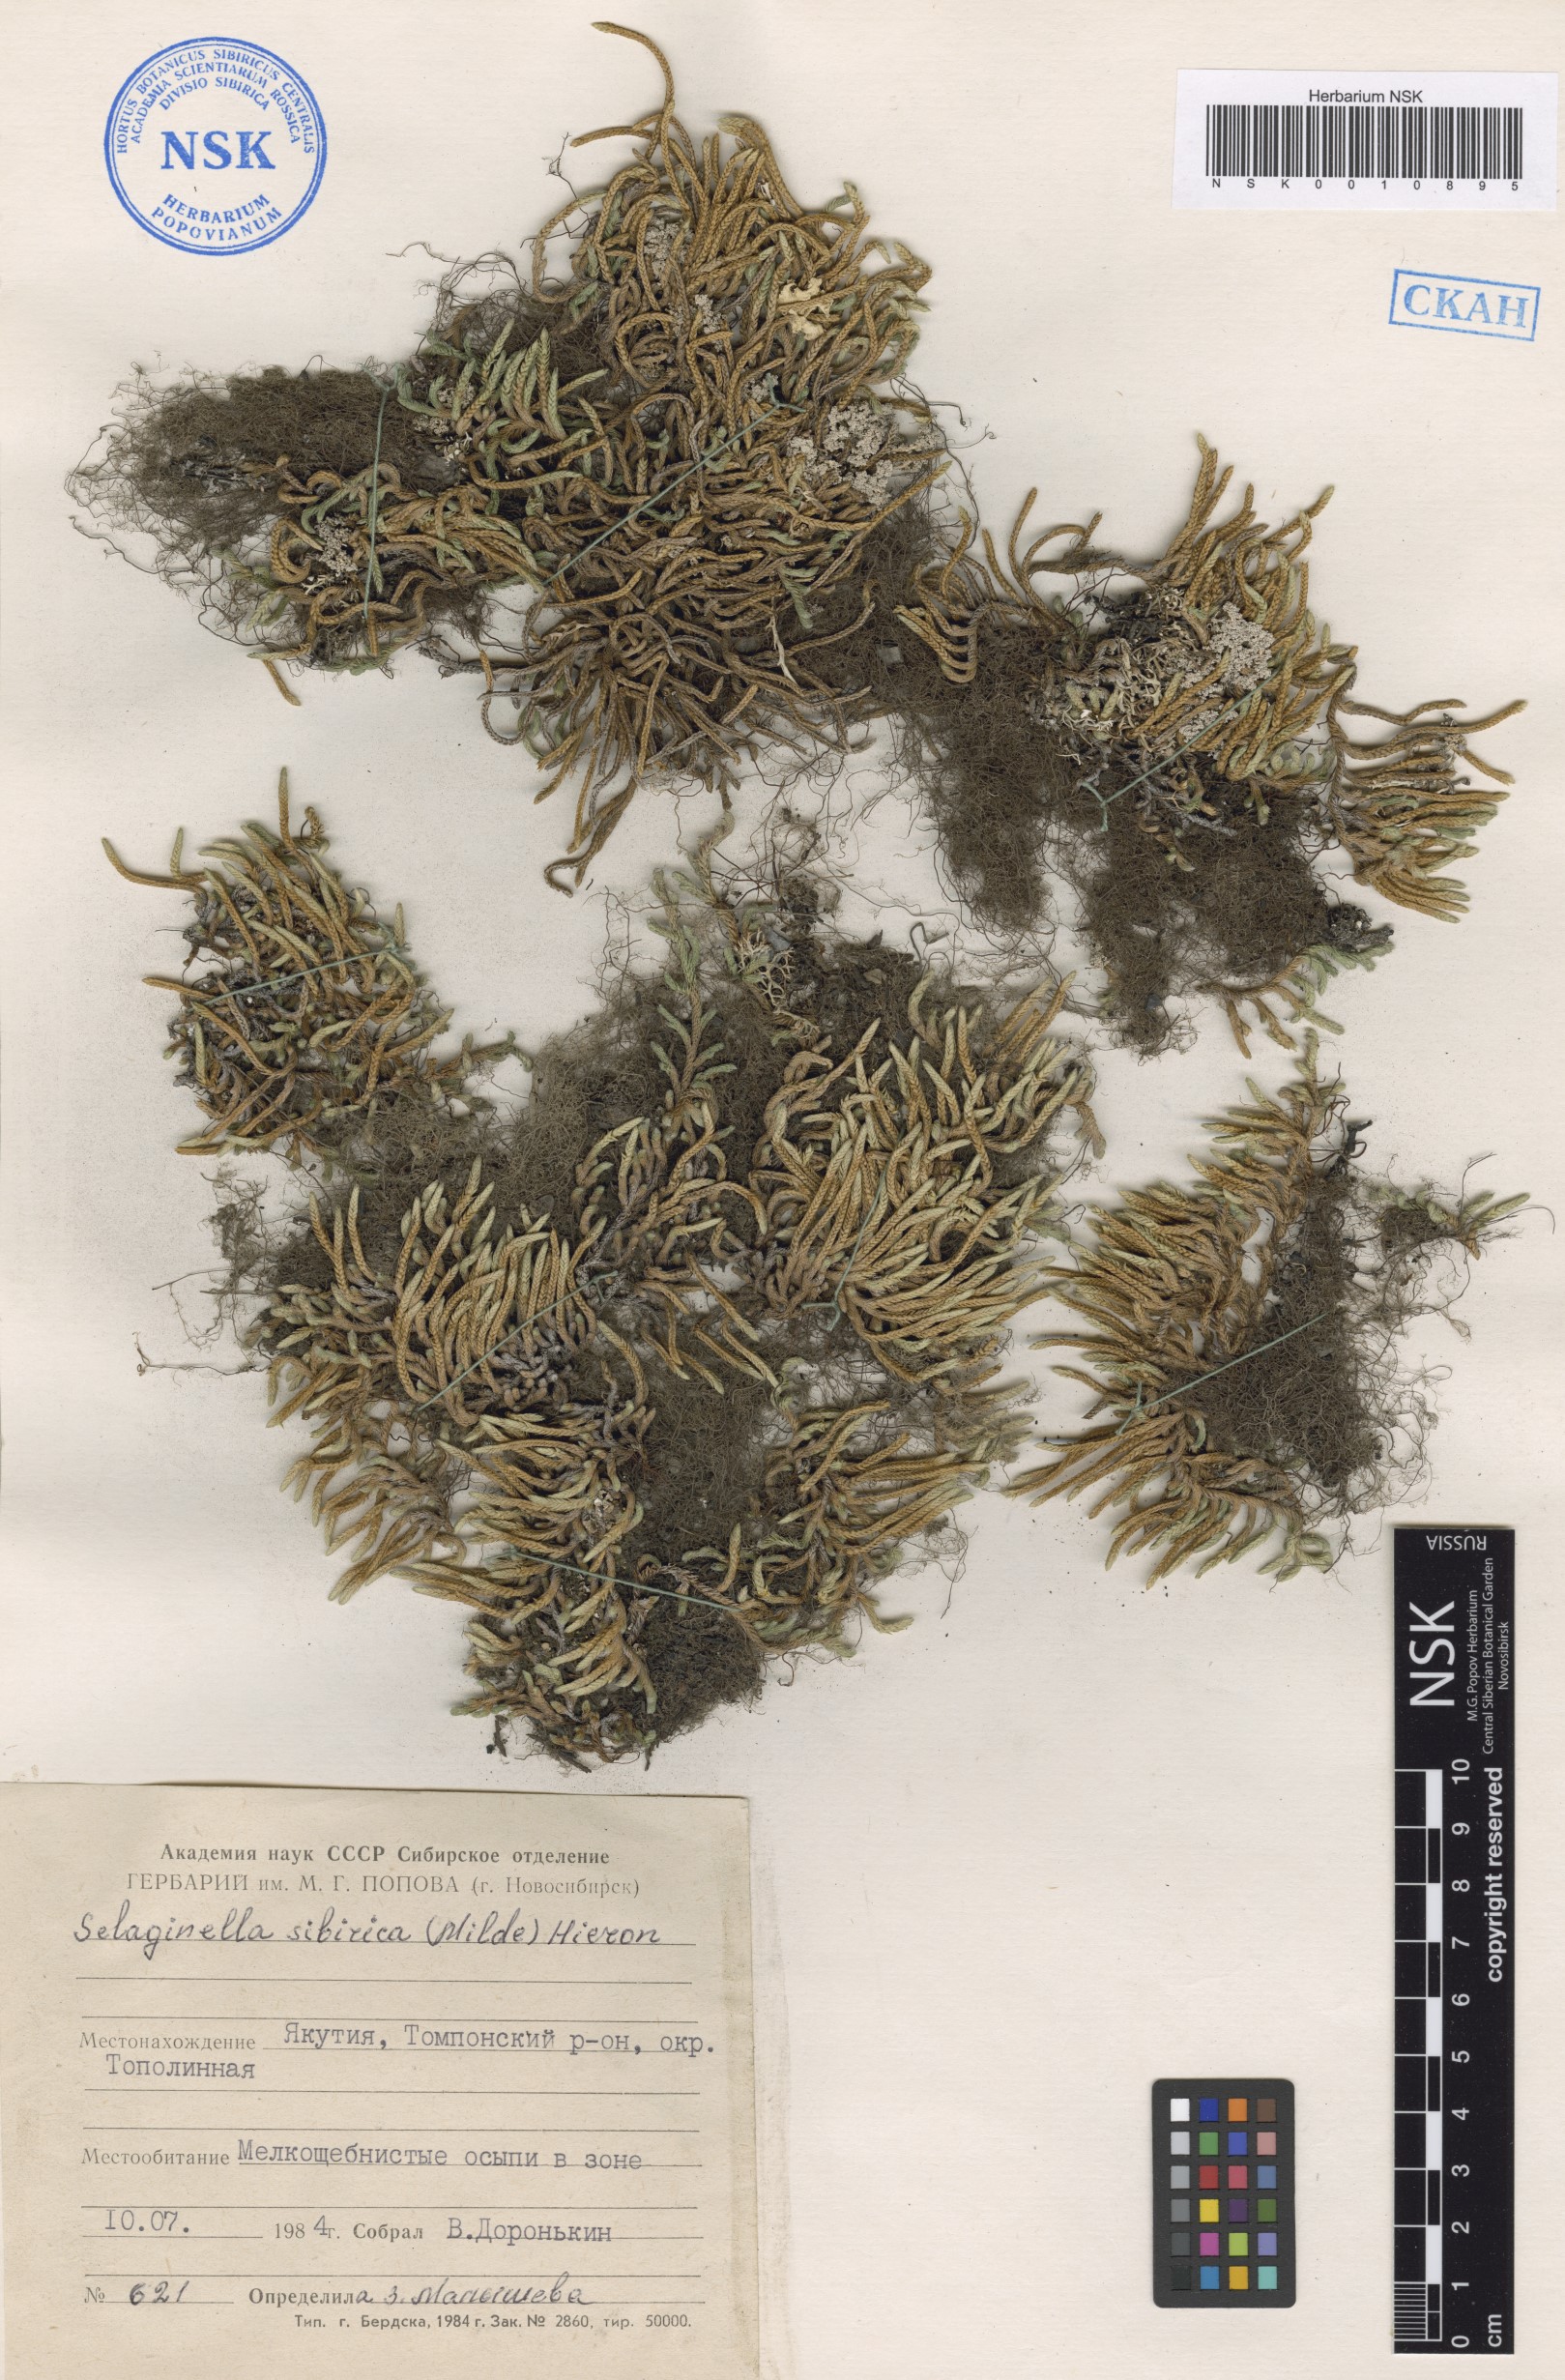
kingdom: Plantae
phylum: Tracheophyta
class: Lycopodiopsida
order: Selaginellales
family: Selaginellaceae
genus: Selaginella
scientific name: Selaginella sibirica
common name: Siberian spikemoss
